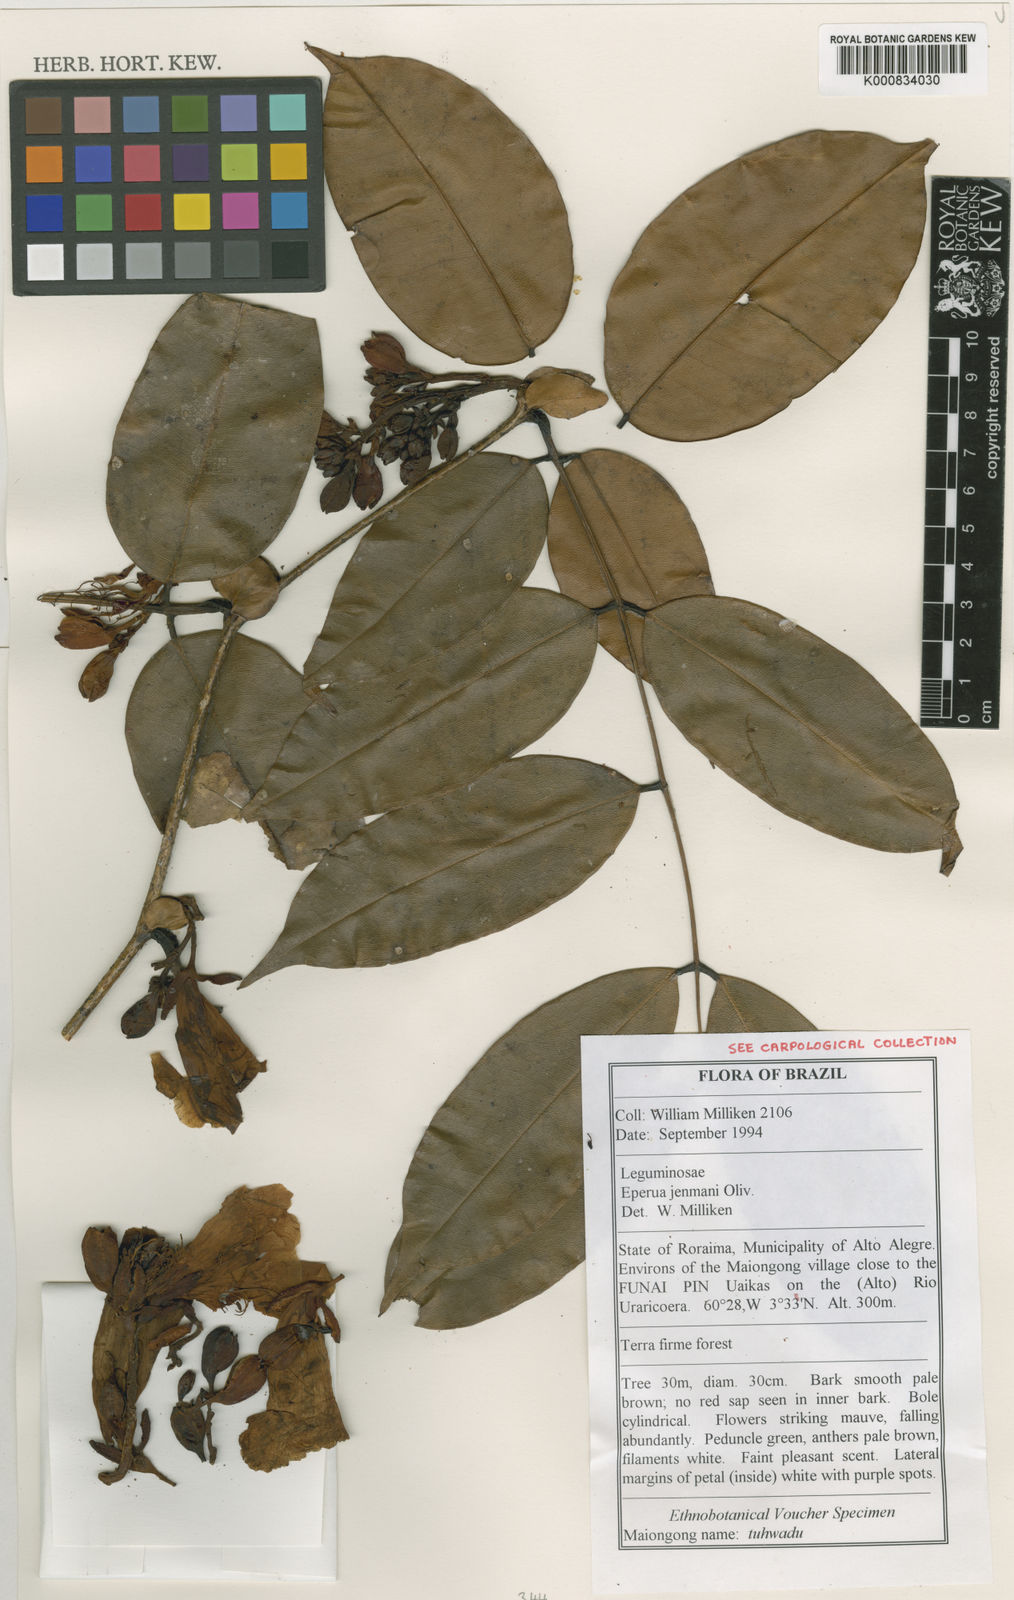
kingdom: Plantae
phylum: Tracheophyta
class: Magnoliopsida
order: Fabales
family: Fabaceae
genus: Eperua
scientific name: Eperua jenmanii
